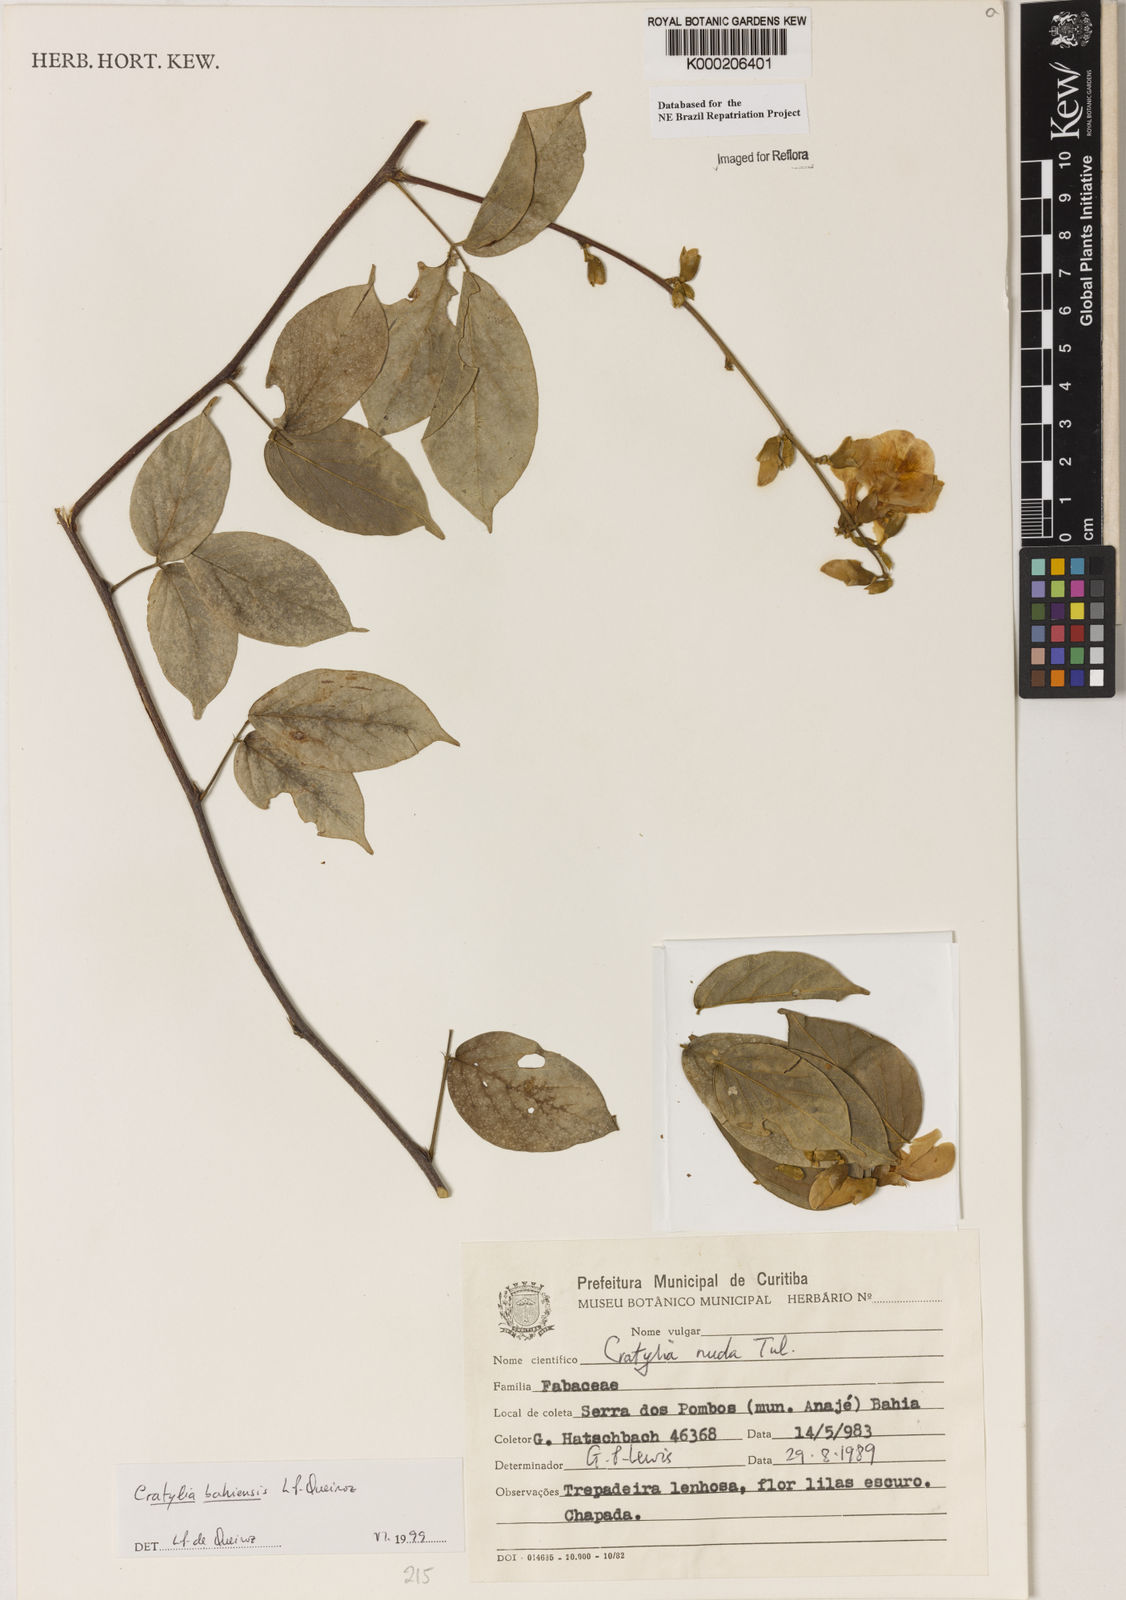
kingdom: Plantae
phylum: Tracheophyta
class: Magnoliopsida
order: Fabales
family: Fabaceae
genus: Cratylia
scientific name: Cratylia bahiensis
